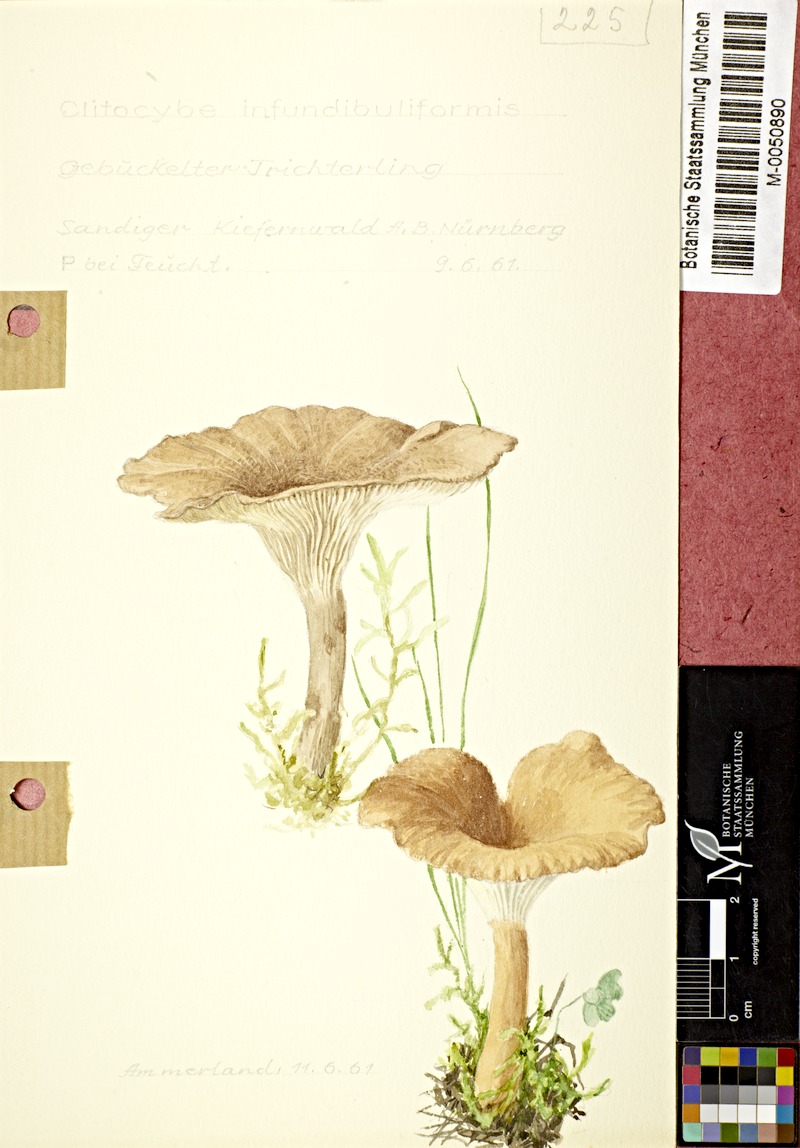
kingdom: Fungi
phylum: Basidiomycota
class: Agaricomycetes
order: Agaricales
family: Tricholomataceae
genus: Infundibulicybe
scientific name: Infundibulicybe gibba
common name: Common funnel
